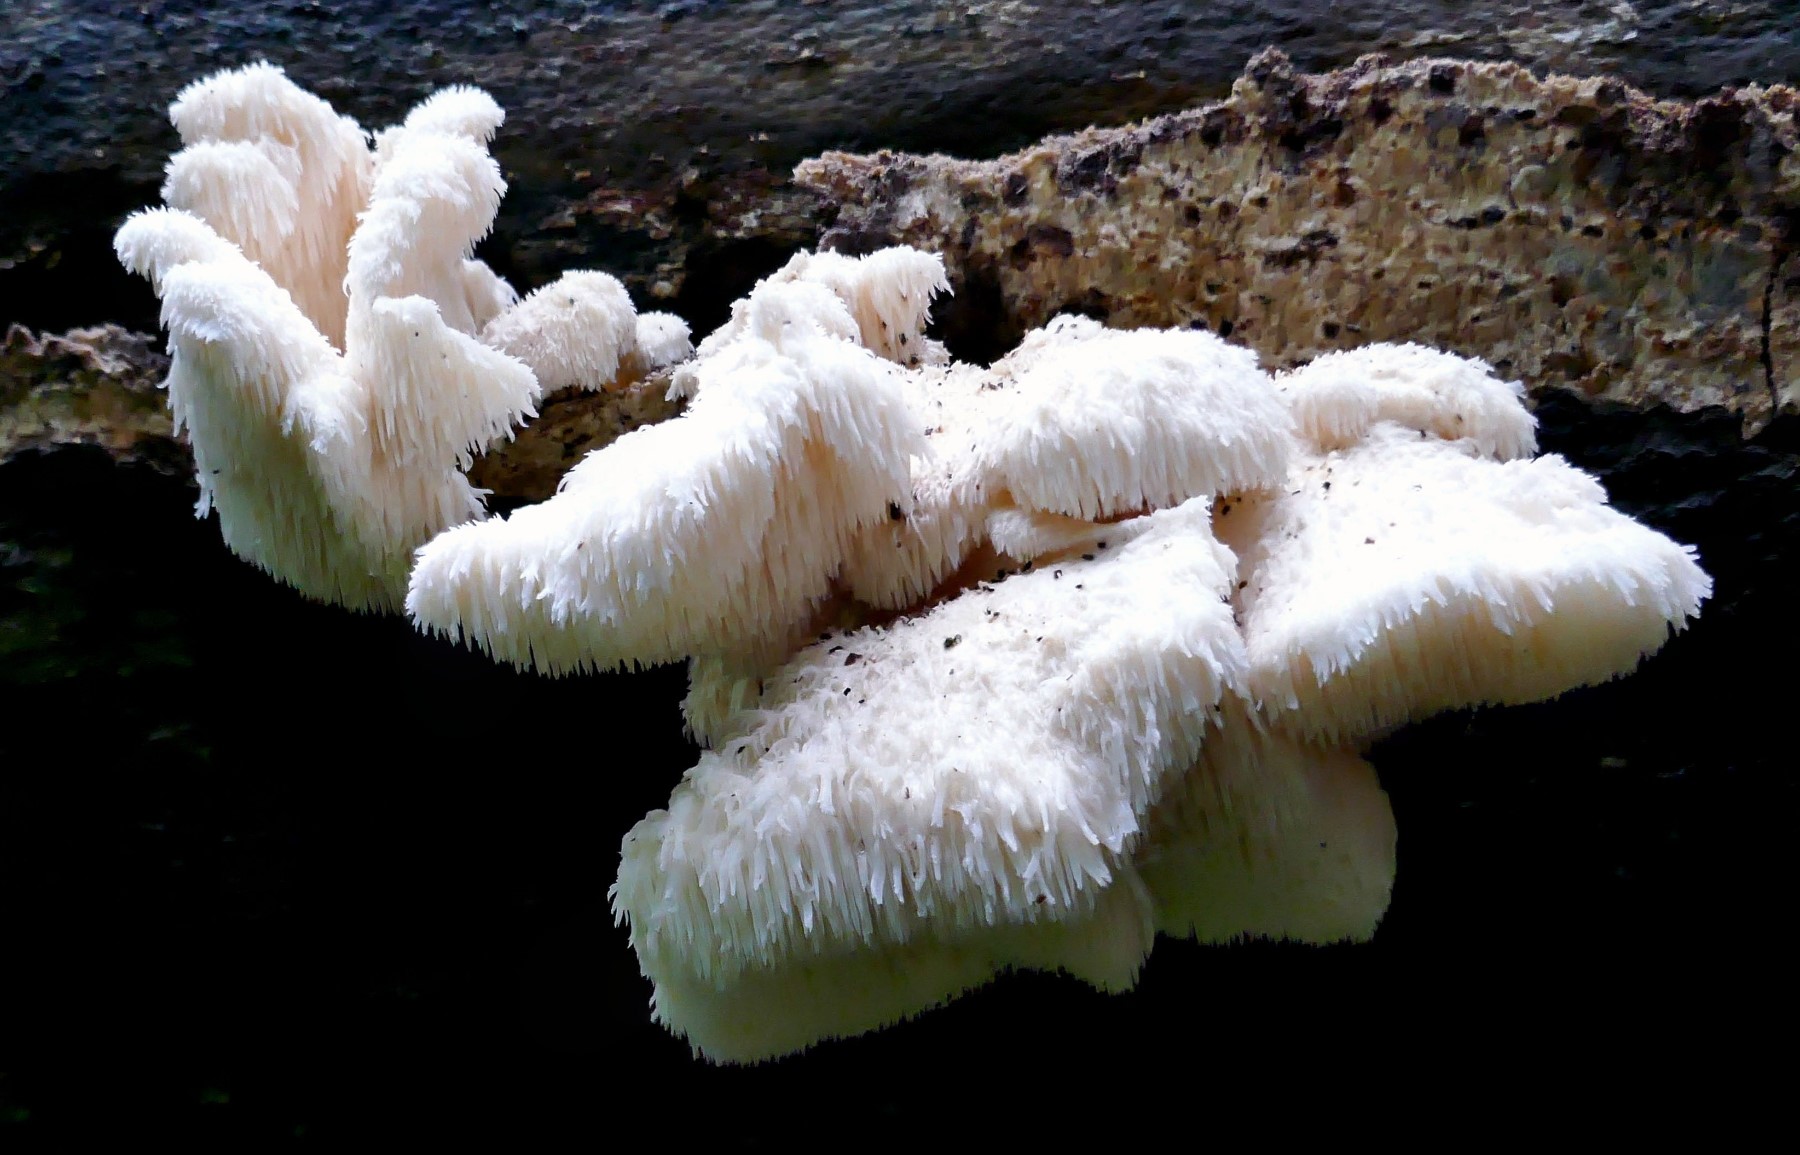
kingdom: Fungi
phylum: Basidiomycota
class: Agaricomycetes
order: Russulales
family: Hericiaceae
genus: Hericium
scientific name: Hericium cirrhatum
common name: børstepigsvamp
